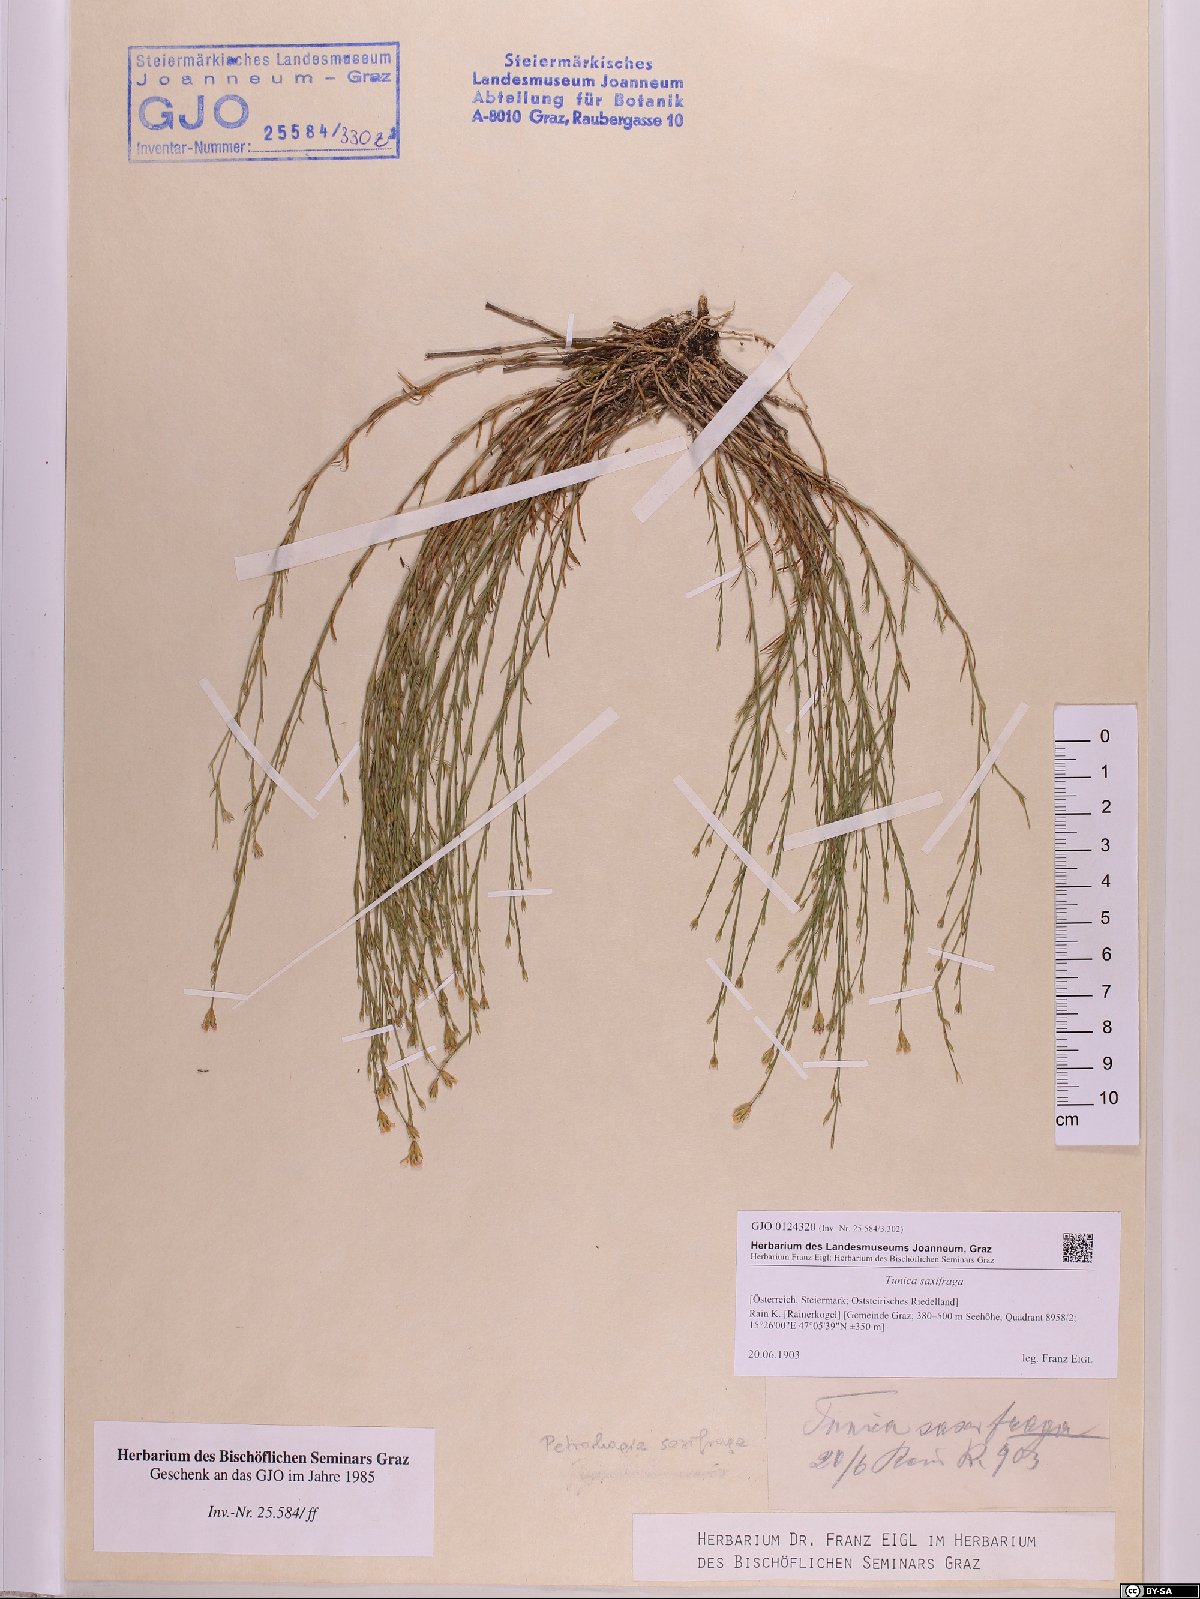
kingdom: Plantae
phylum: Tracheophyta
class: Magnoliopsida
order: Caryophyllales
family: Caryophyllaceae
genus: Petrorhagia
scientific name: Petrorhagia saxifraga
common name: Tunicflower
